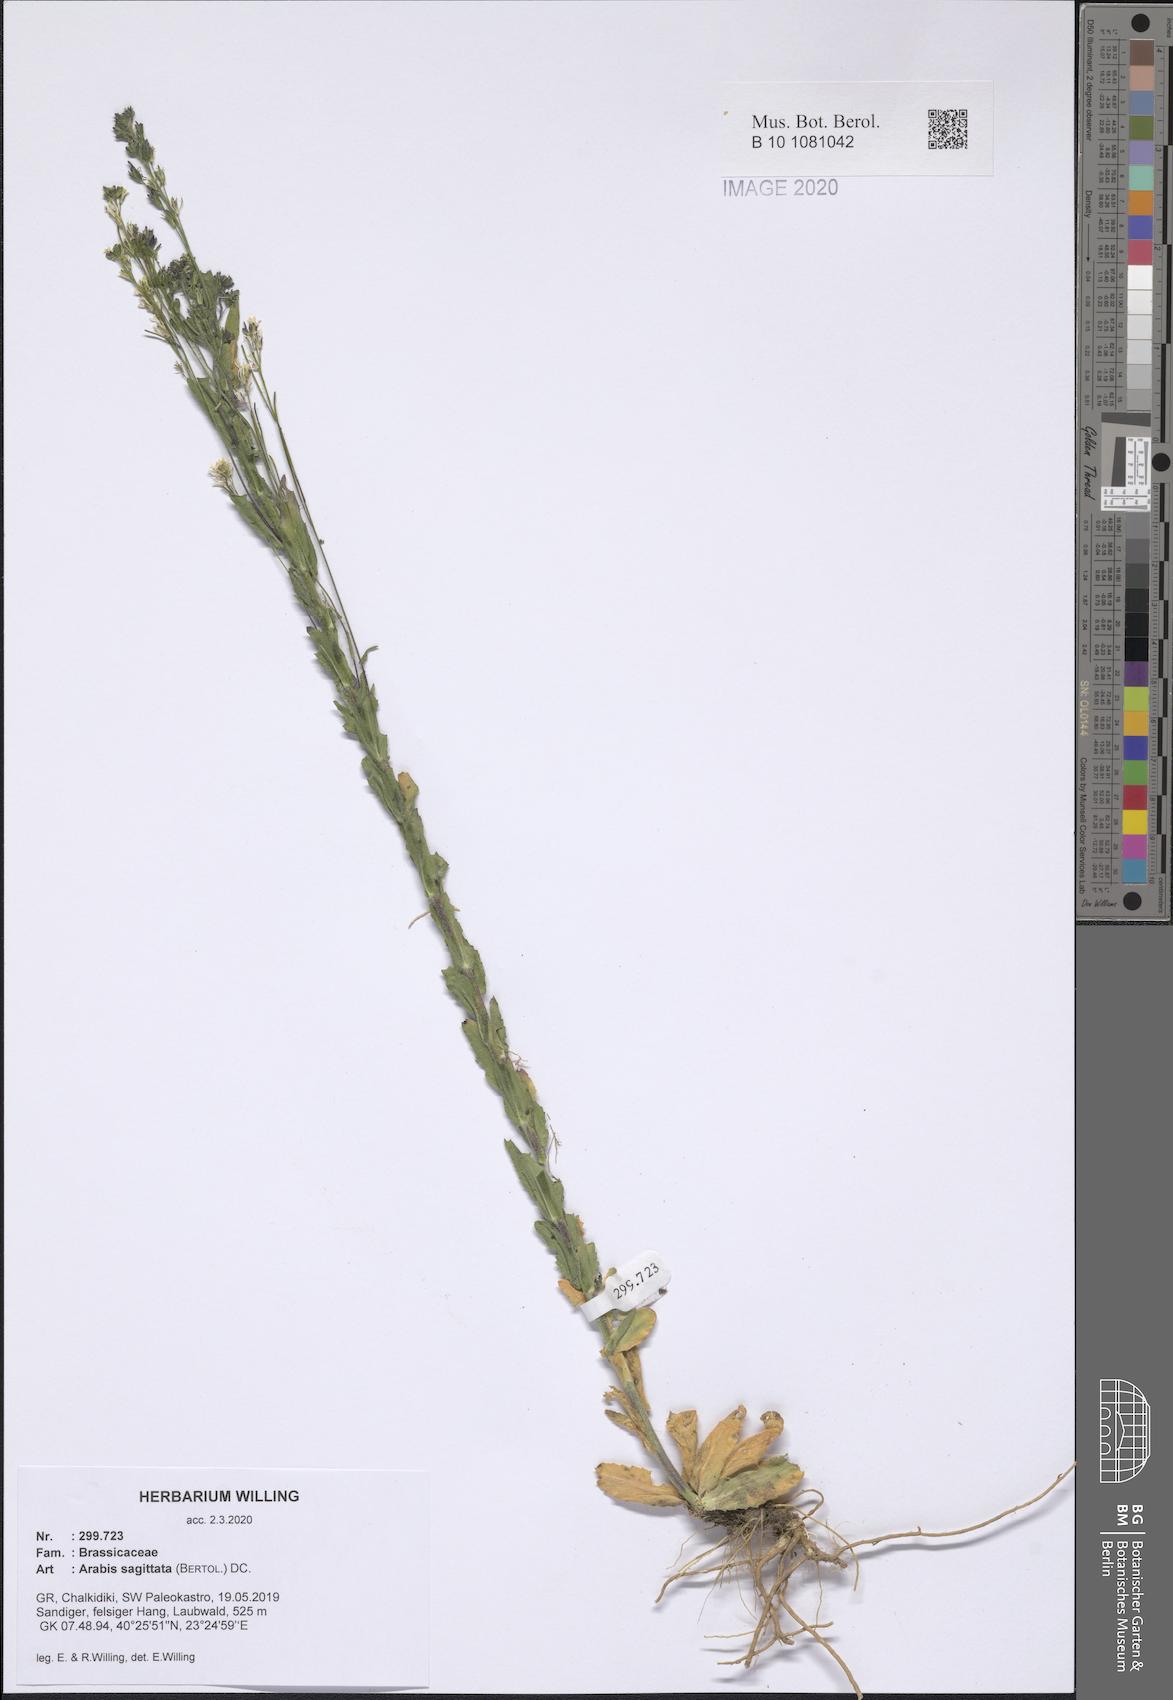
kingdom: Plantae
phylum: Tracheophyta
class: Magnoliopsida
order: Brassicales
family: Brassicaceae
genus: Arabis
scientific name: Arabis sagittata
